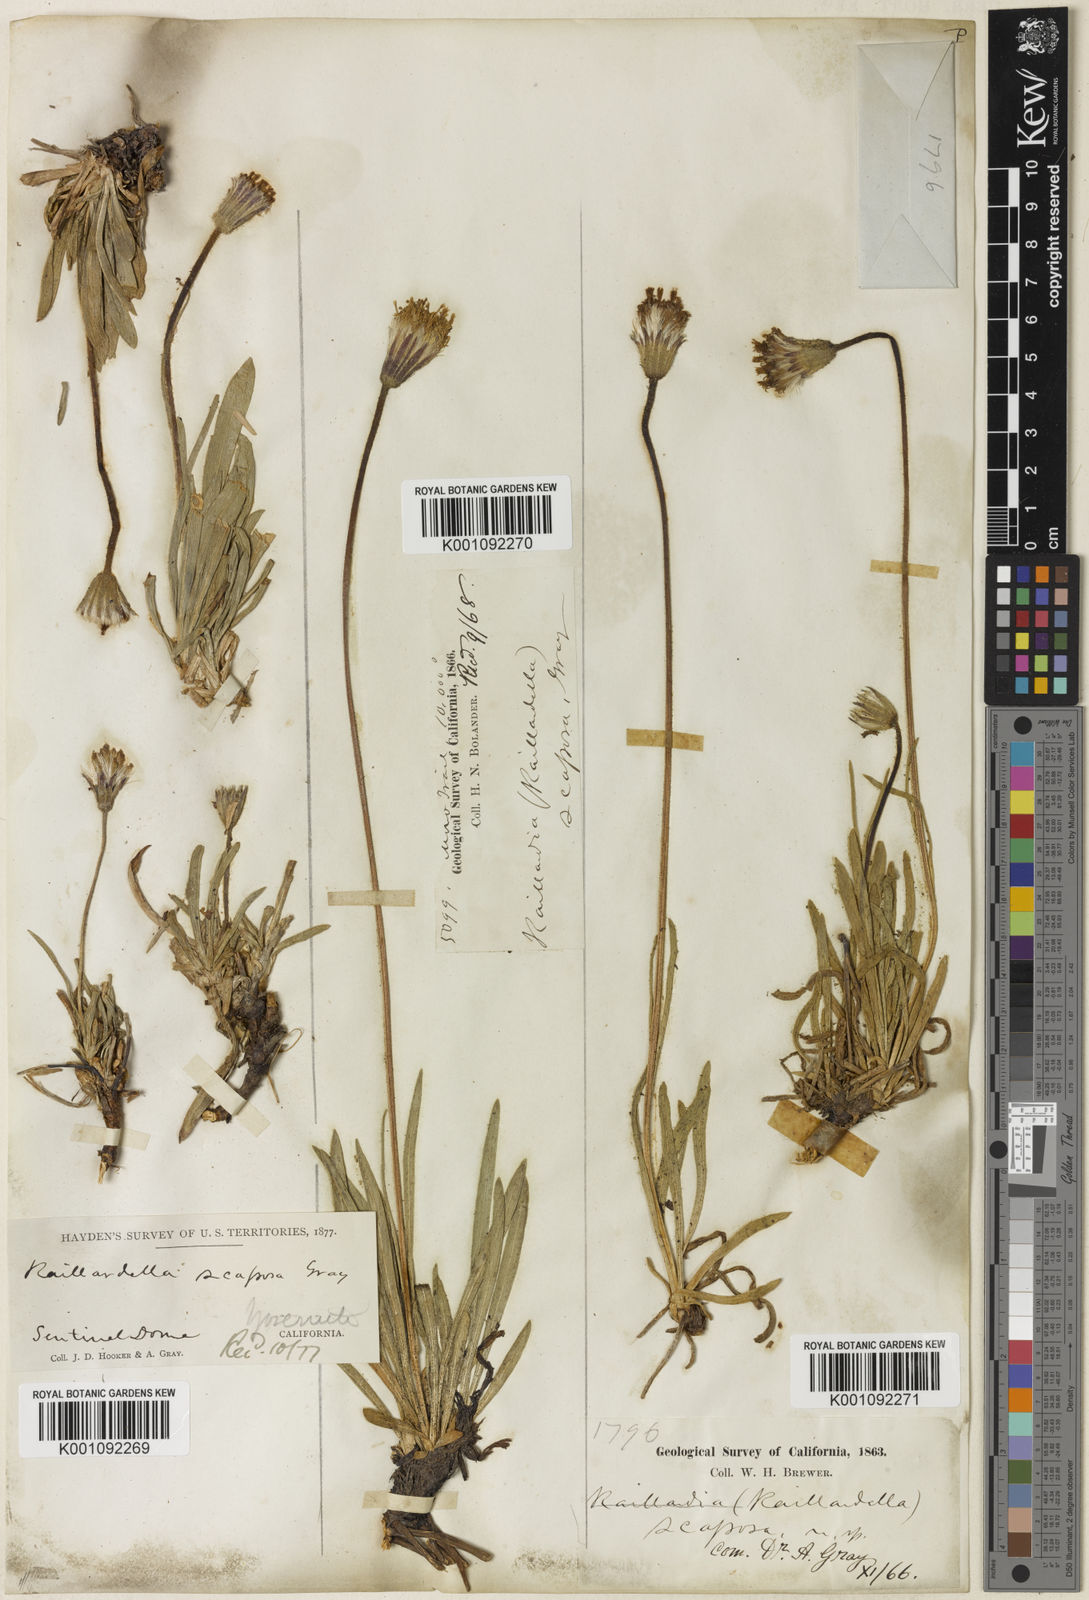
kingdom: Plantae
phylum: Tracheophyta
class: Magnoliopsida
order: Asterales
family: Asteraceae
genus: Raillardella
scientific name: Raillardella scaposa
